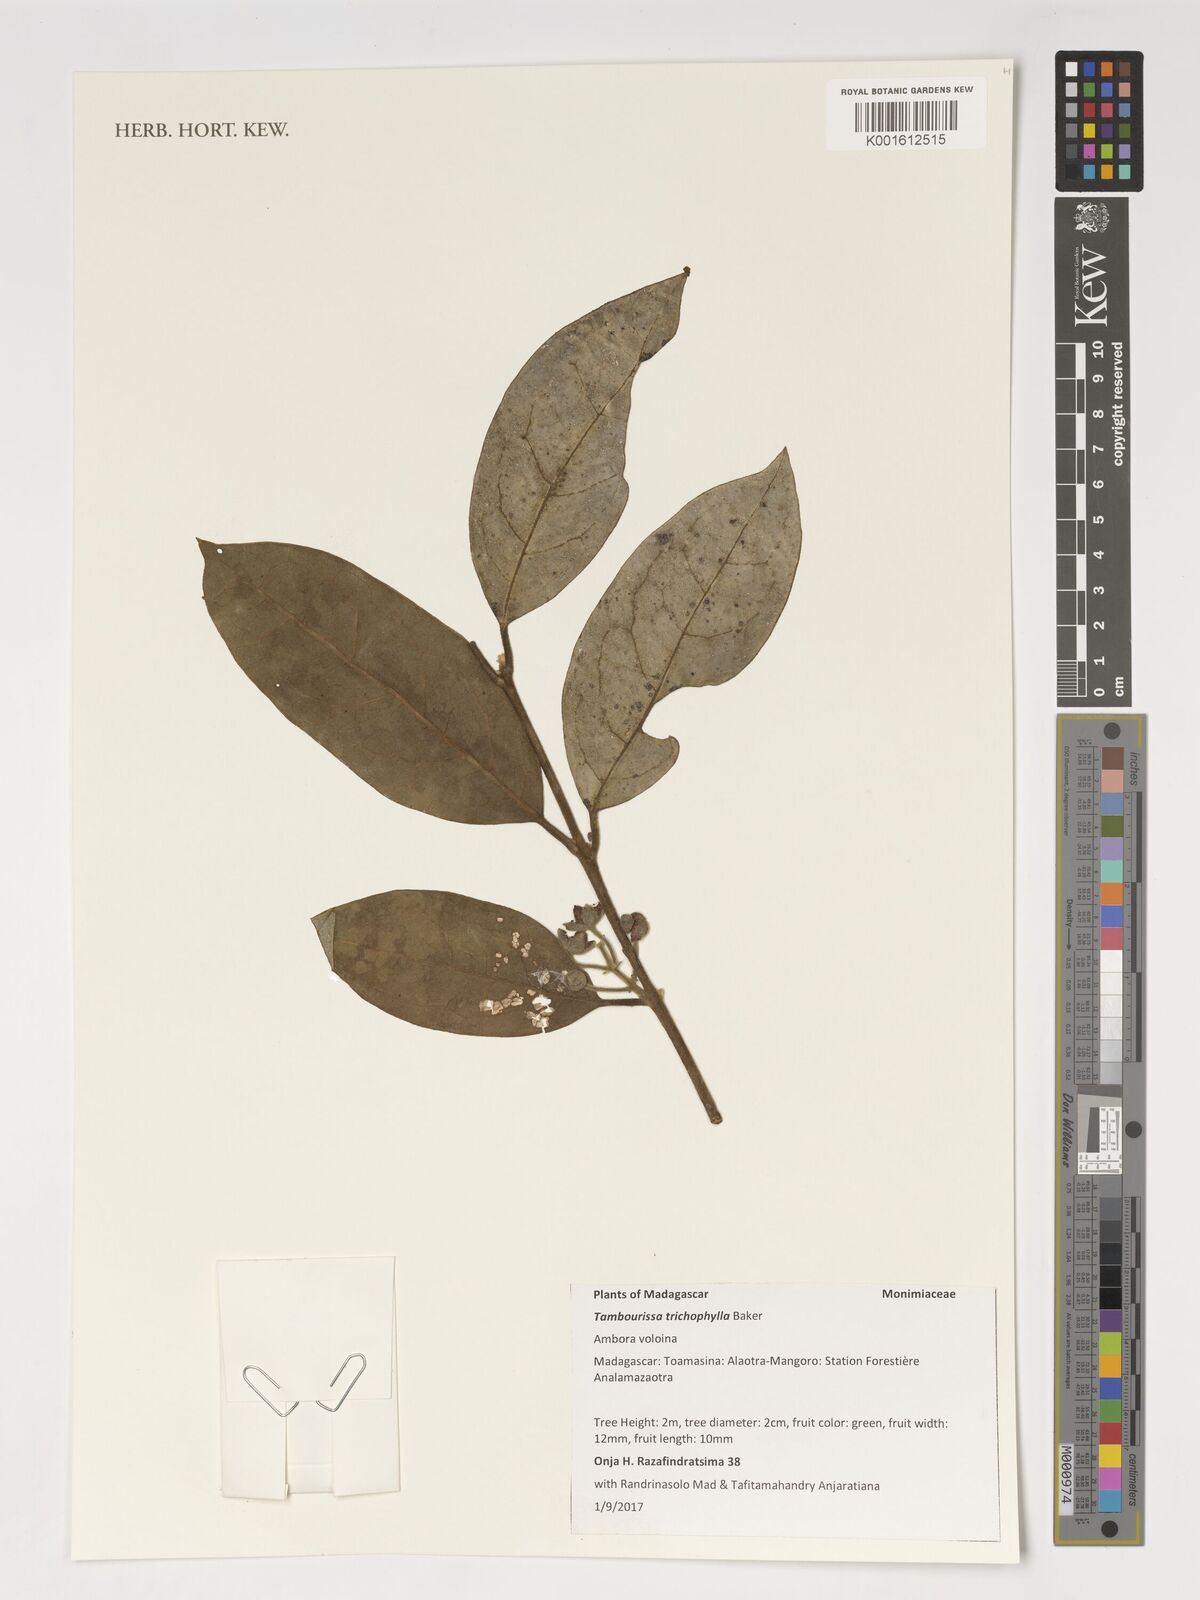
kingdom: Plantae
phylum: Tracheophyta
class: Magnoliopsida
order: Laurales
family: Monimiaceae
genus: Tambourissa
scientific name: Tambourissa trichophylla
